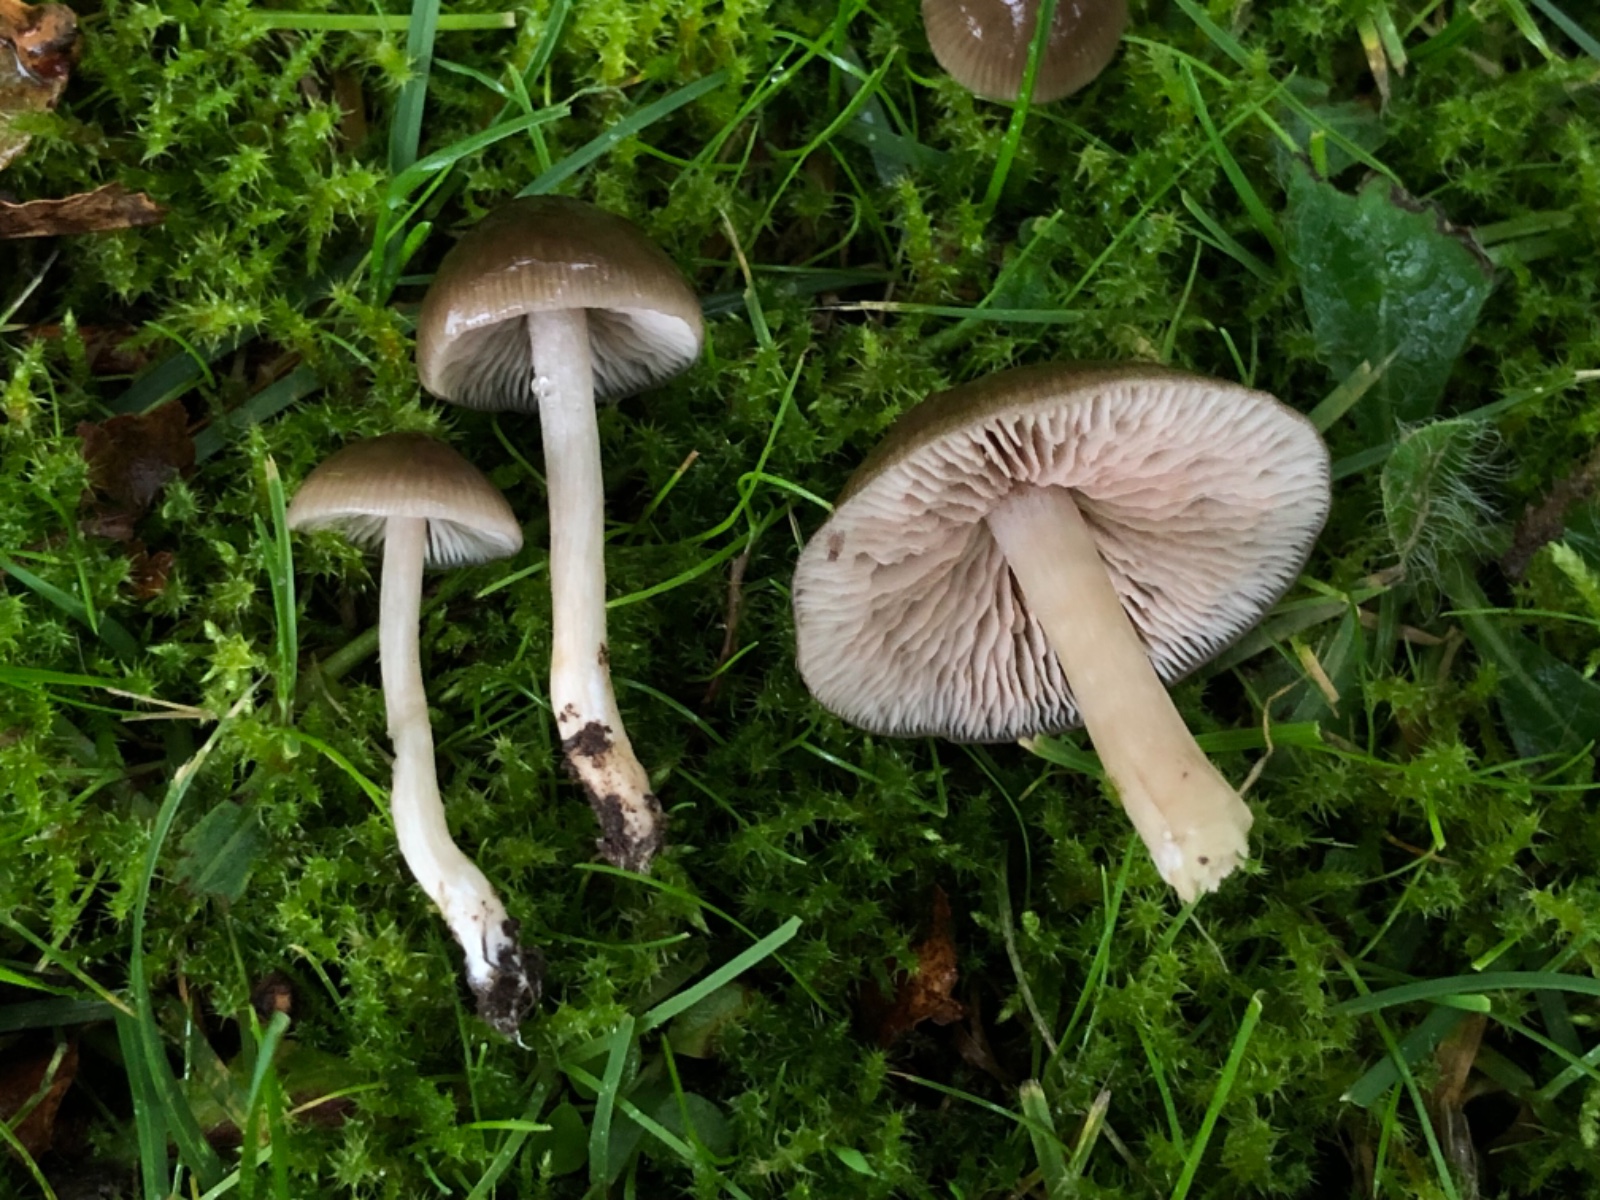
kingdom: Fungi
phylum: Basidiomycota
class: Agaricomycetes
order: Agaricales
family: Entolomataceae
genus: Entoloma
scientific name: Entoloma
